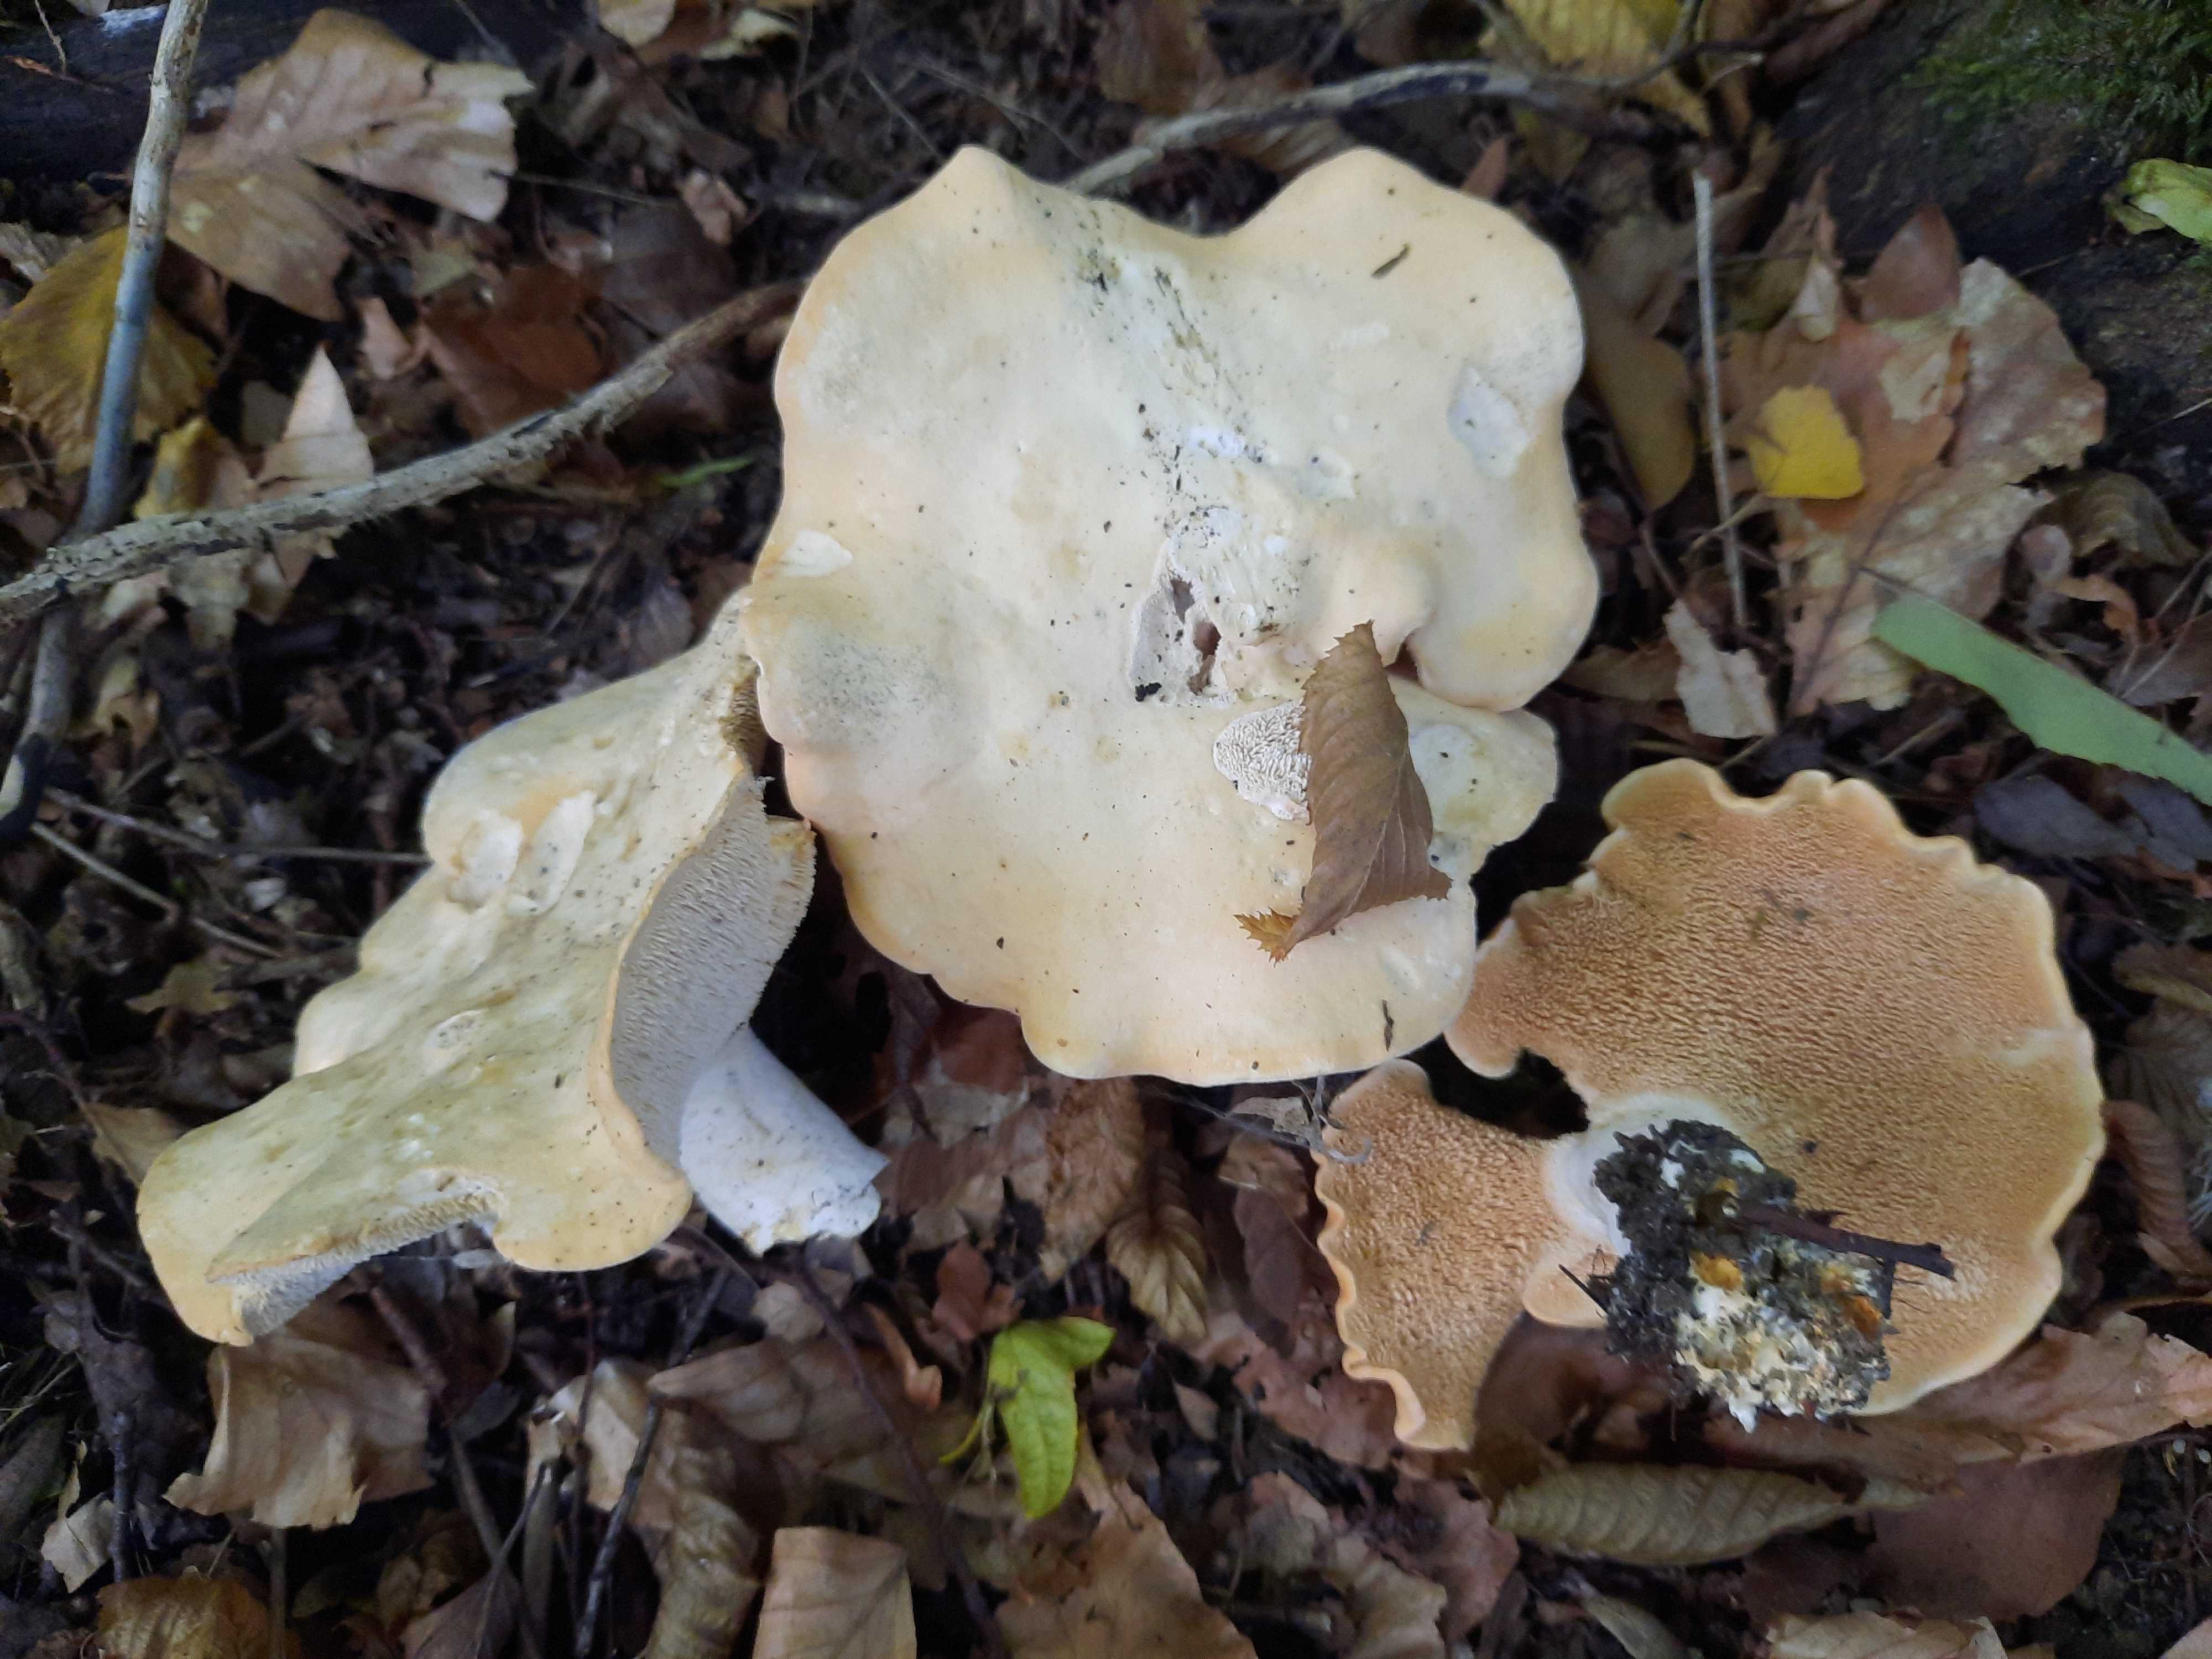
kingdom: Fungi
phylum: Basidiomycota
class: Agaricomycetes
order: Cantharellales
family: Hydnaceae
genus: Hydnum
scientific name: Hydnum
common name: pigsvamp
